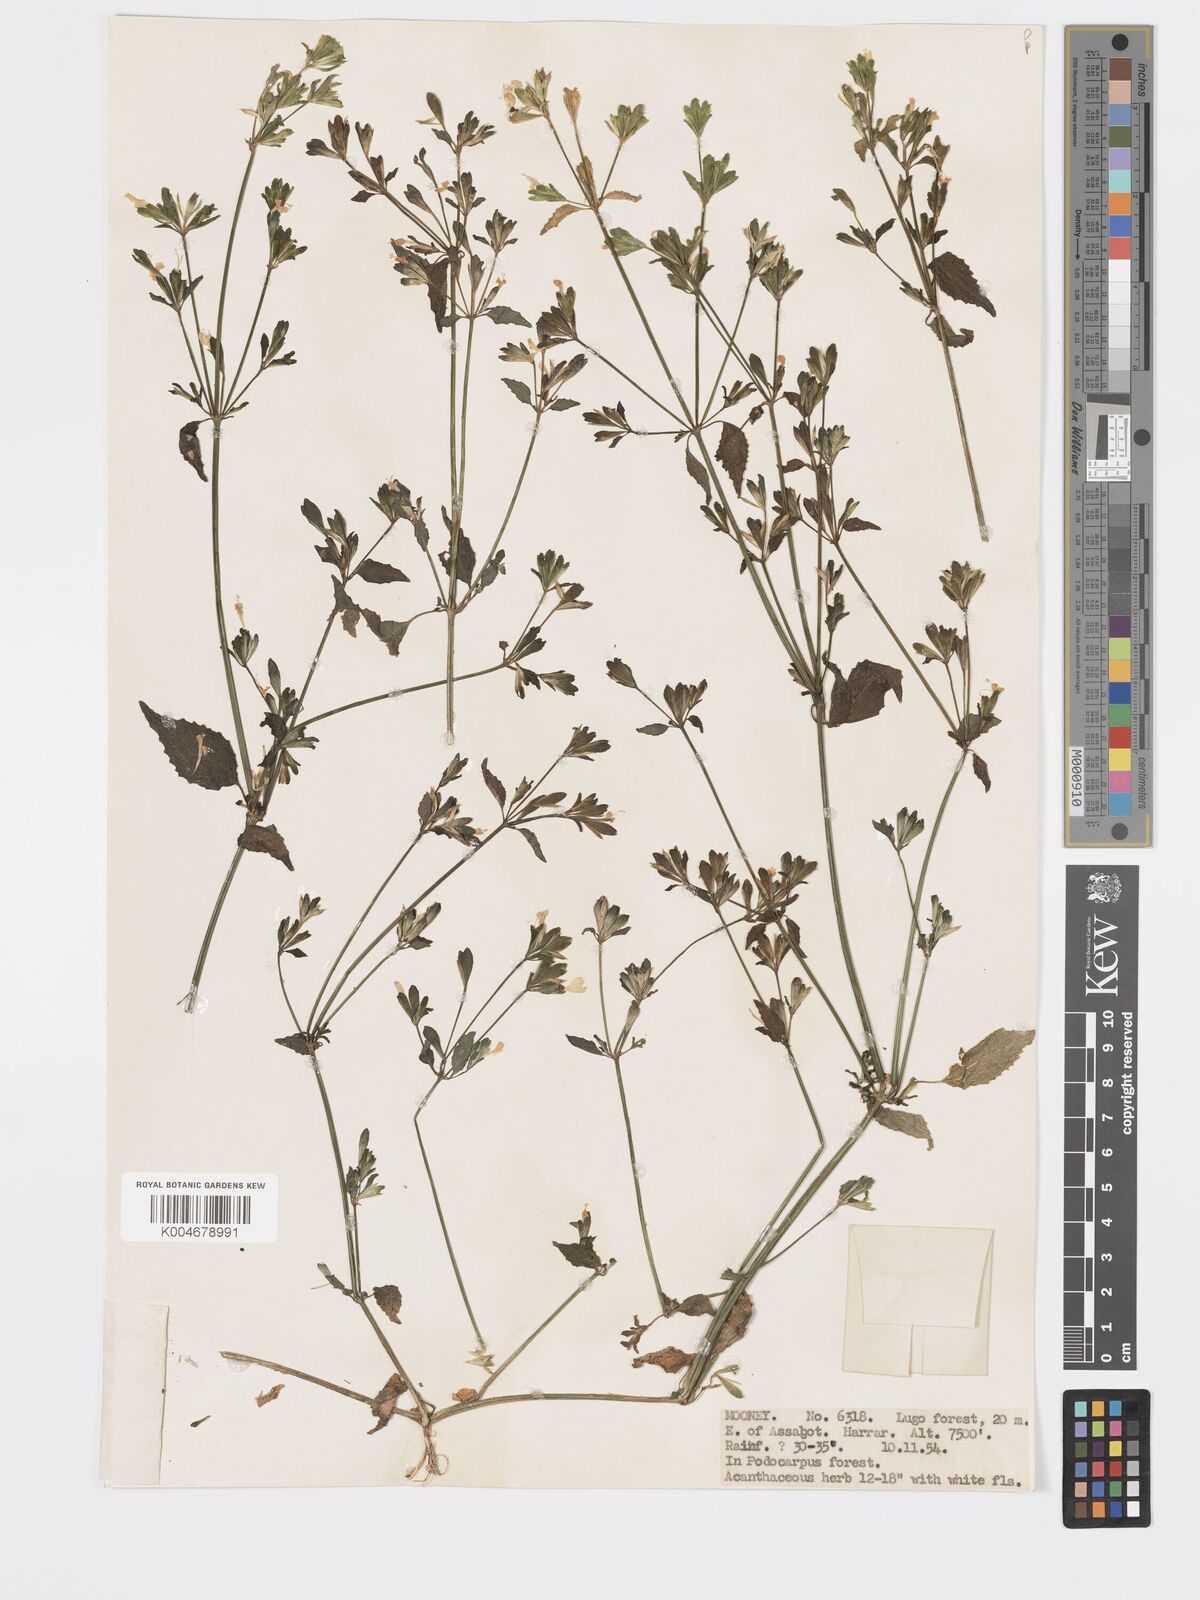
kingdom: Plantae
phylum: Tracheophyta
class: Magnoliopsida
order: Lamiales
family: Acanthaceae
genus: Hypoestes
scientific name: Hypoestes triflora
